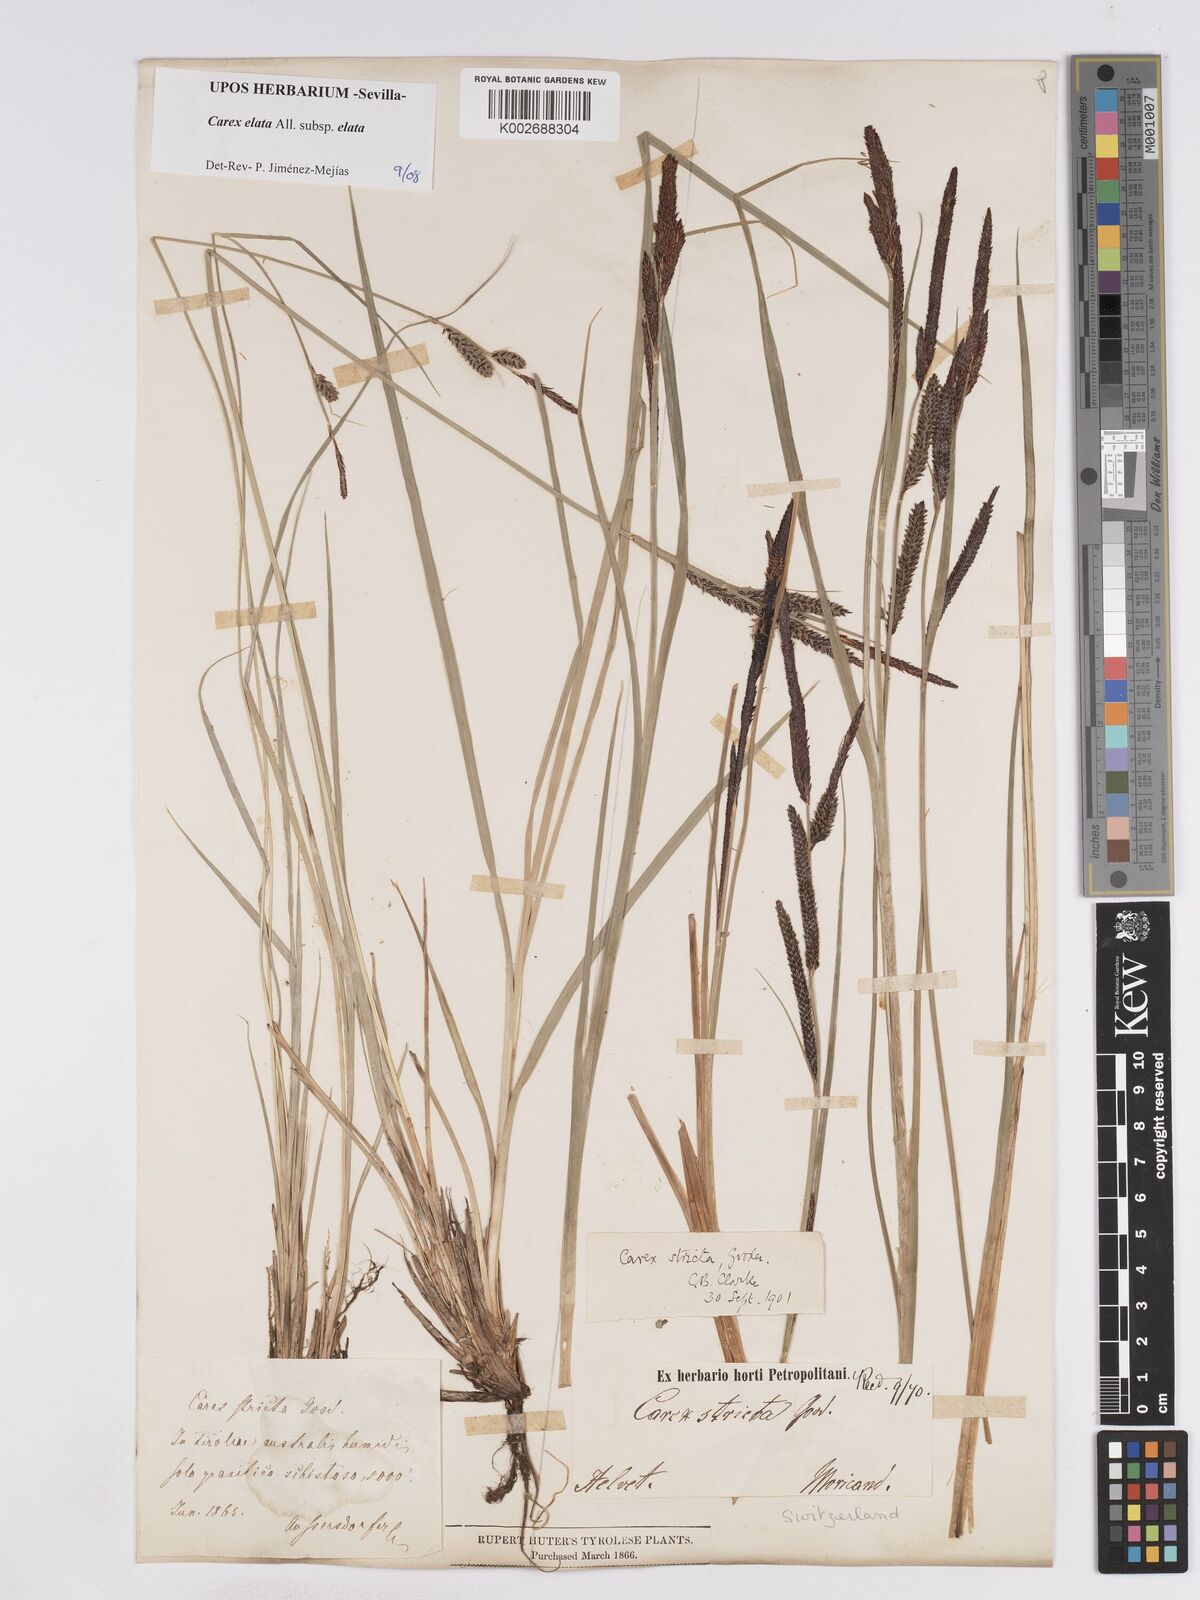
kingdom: Plantae
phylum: Tracheophyta
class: Liliopsida
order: Poales
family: Cyperaceae
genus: Carex
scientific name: Carex elata
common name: Tufted sedge
